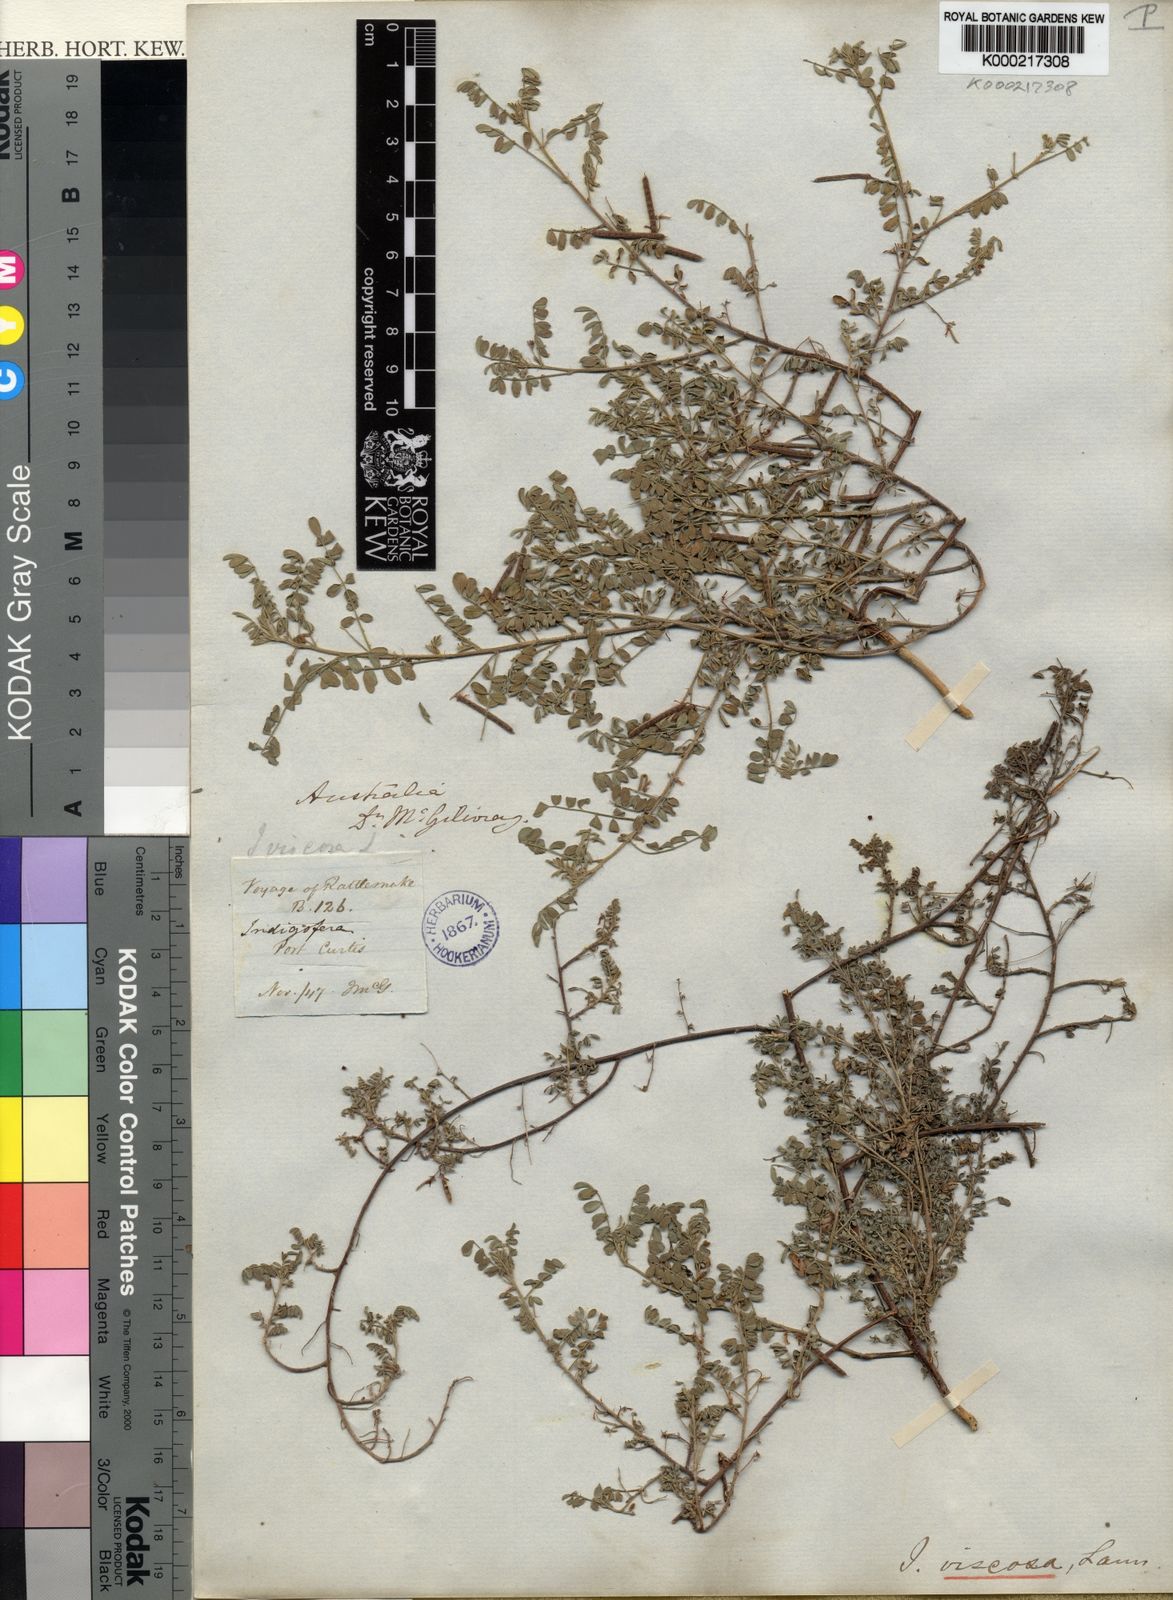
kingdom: Plantae
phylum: Tracheophyta
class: Magnoliopsida
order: Fabales
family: Fabaceae
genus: Indigofera
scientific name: Indigofera colutea
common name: Rusty indigo
